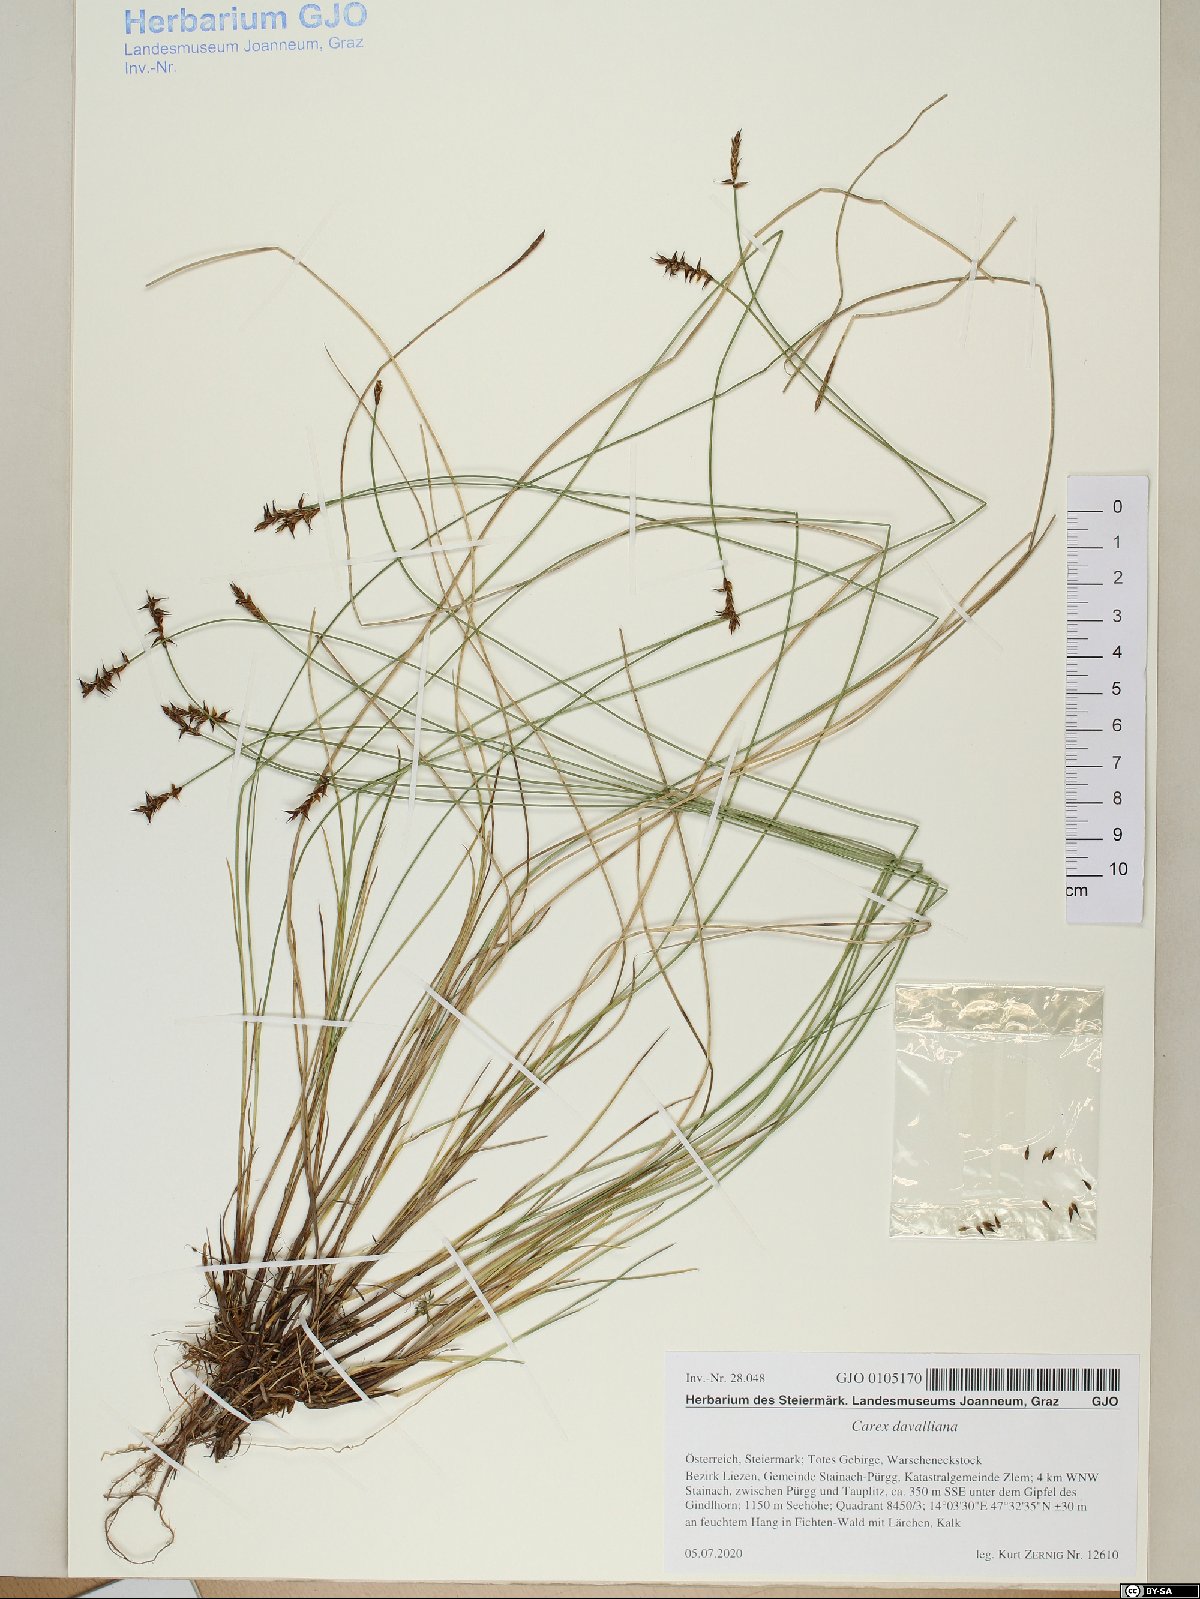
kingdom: Plantae
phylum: Tracheophyta
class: Liliopsida
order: Poales
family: Cyperaceae
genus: Carex
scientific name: Carex davalliana
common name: Davall's sedge
